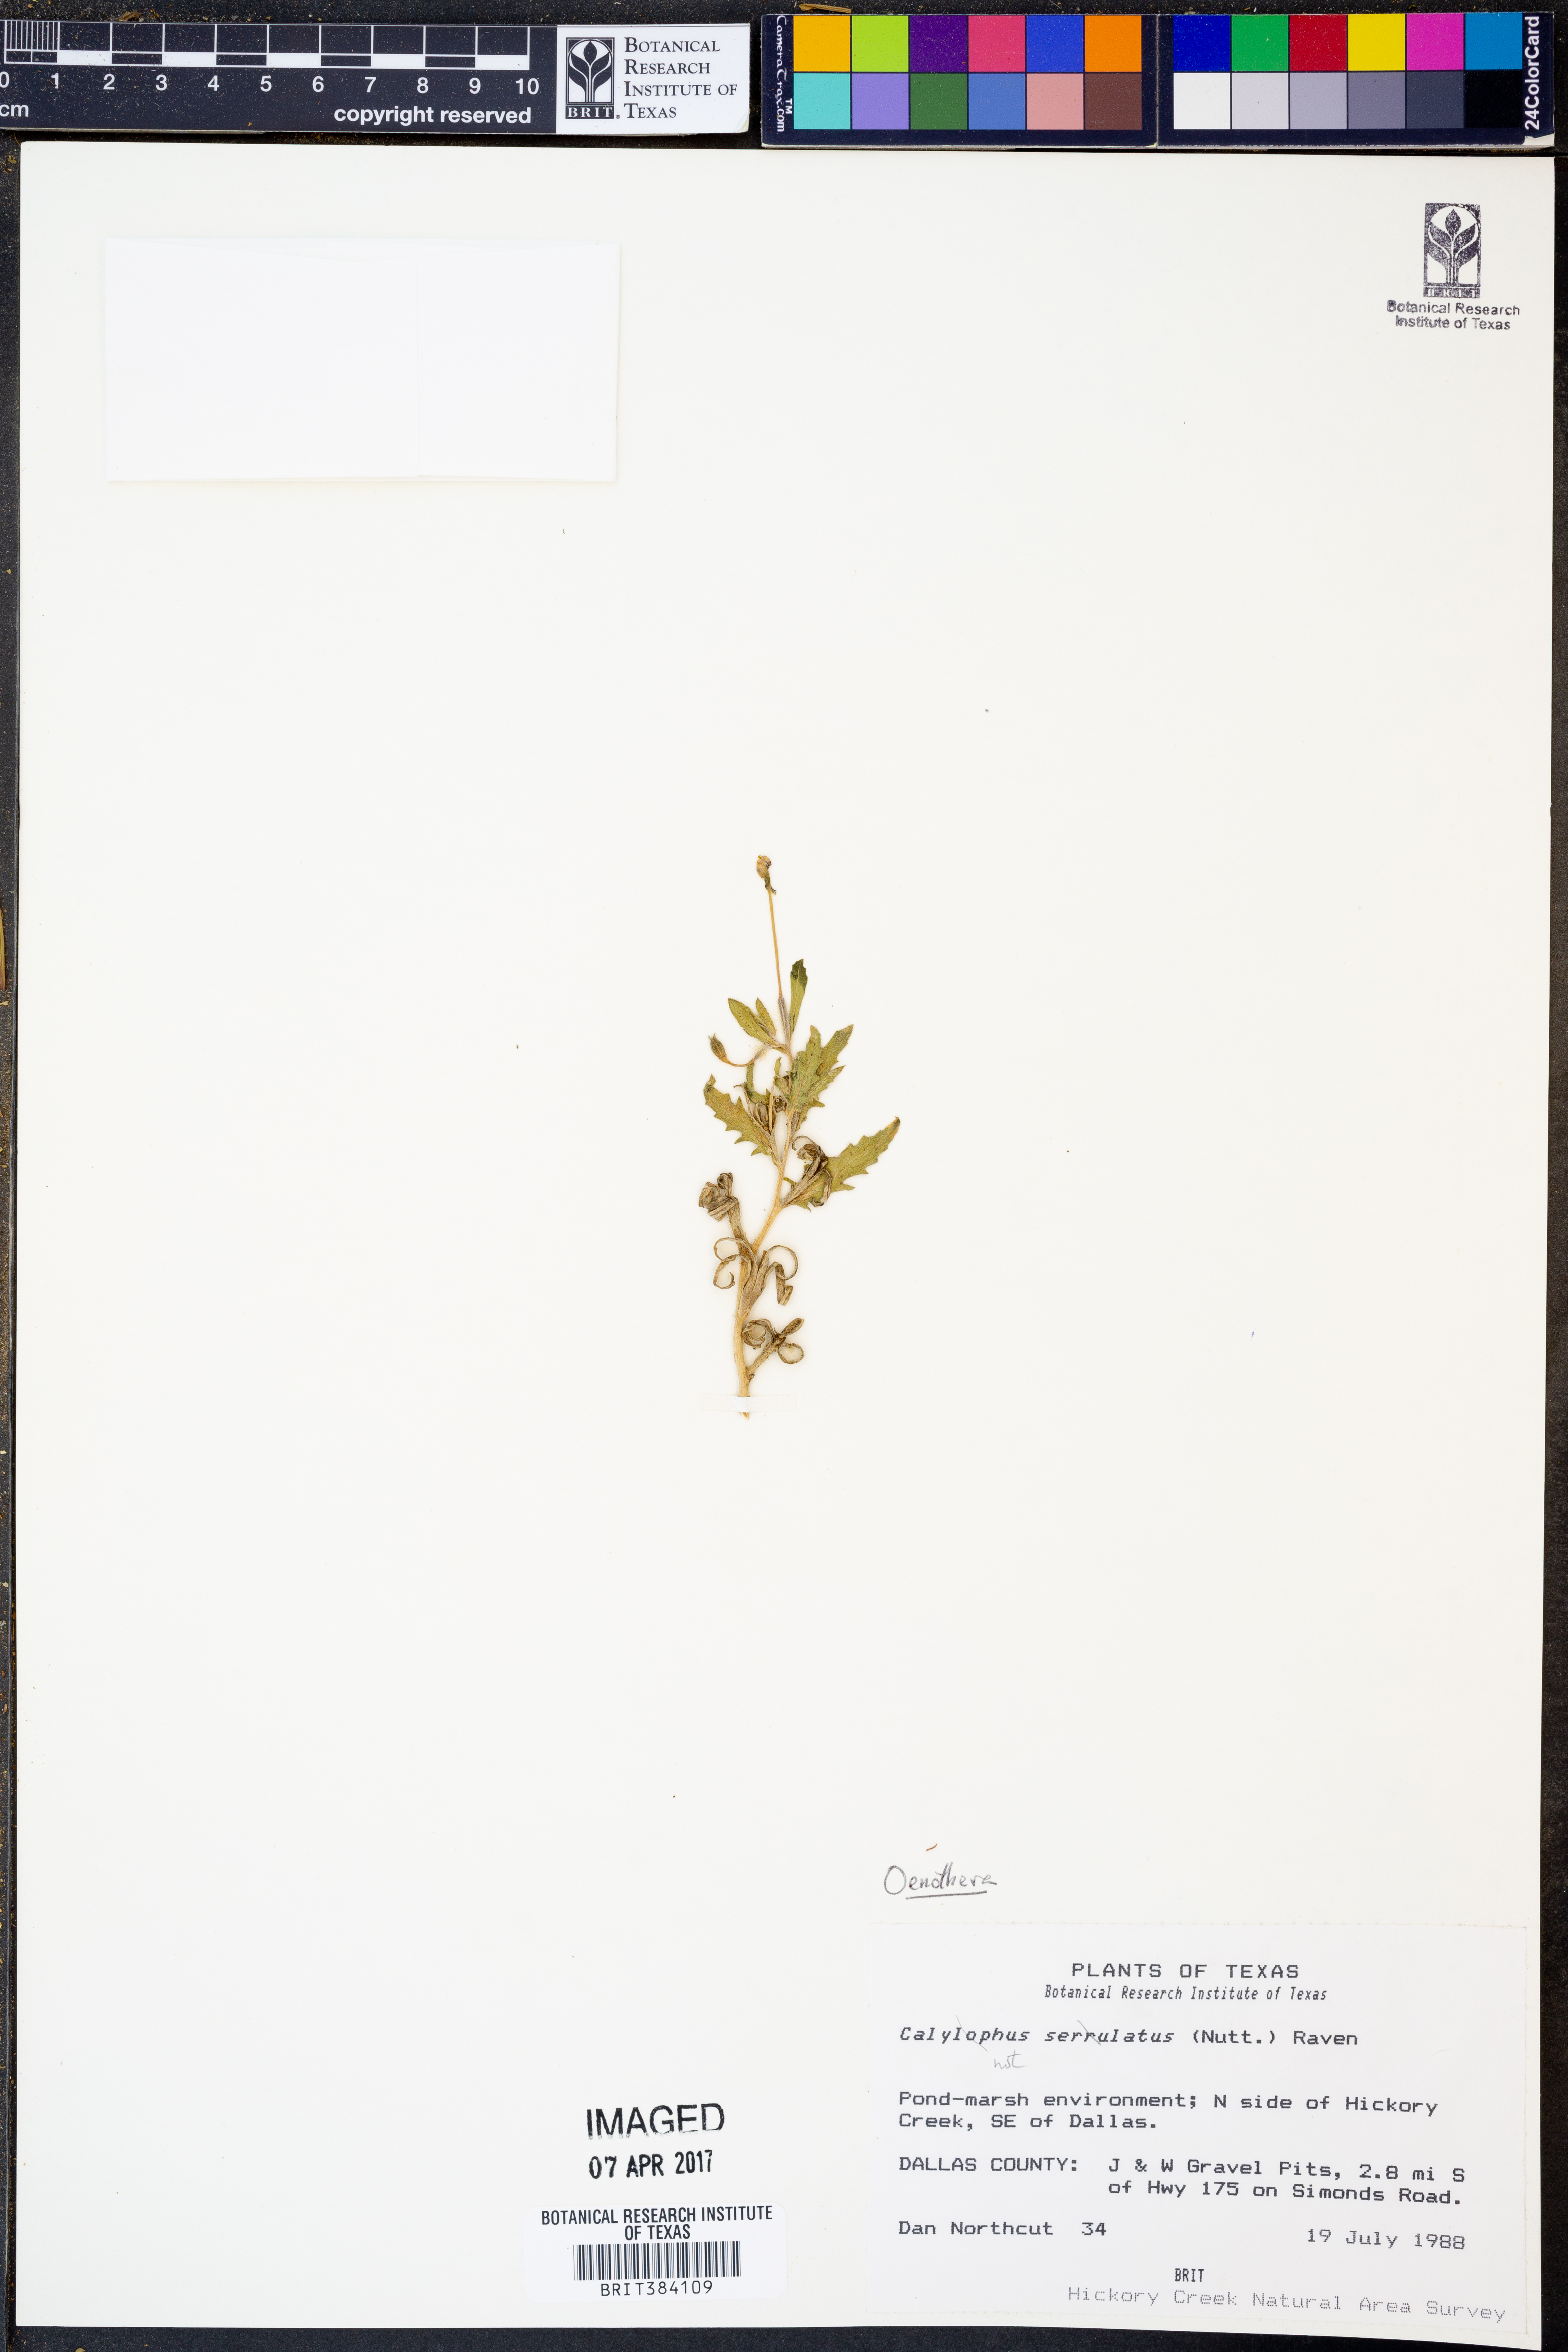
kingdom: Plantae
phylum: Tracheophyta
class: Magnoliopsida
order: Myrtales
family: Onagraceae
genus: Oenothera
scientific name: Oenothera
